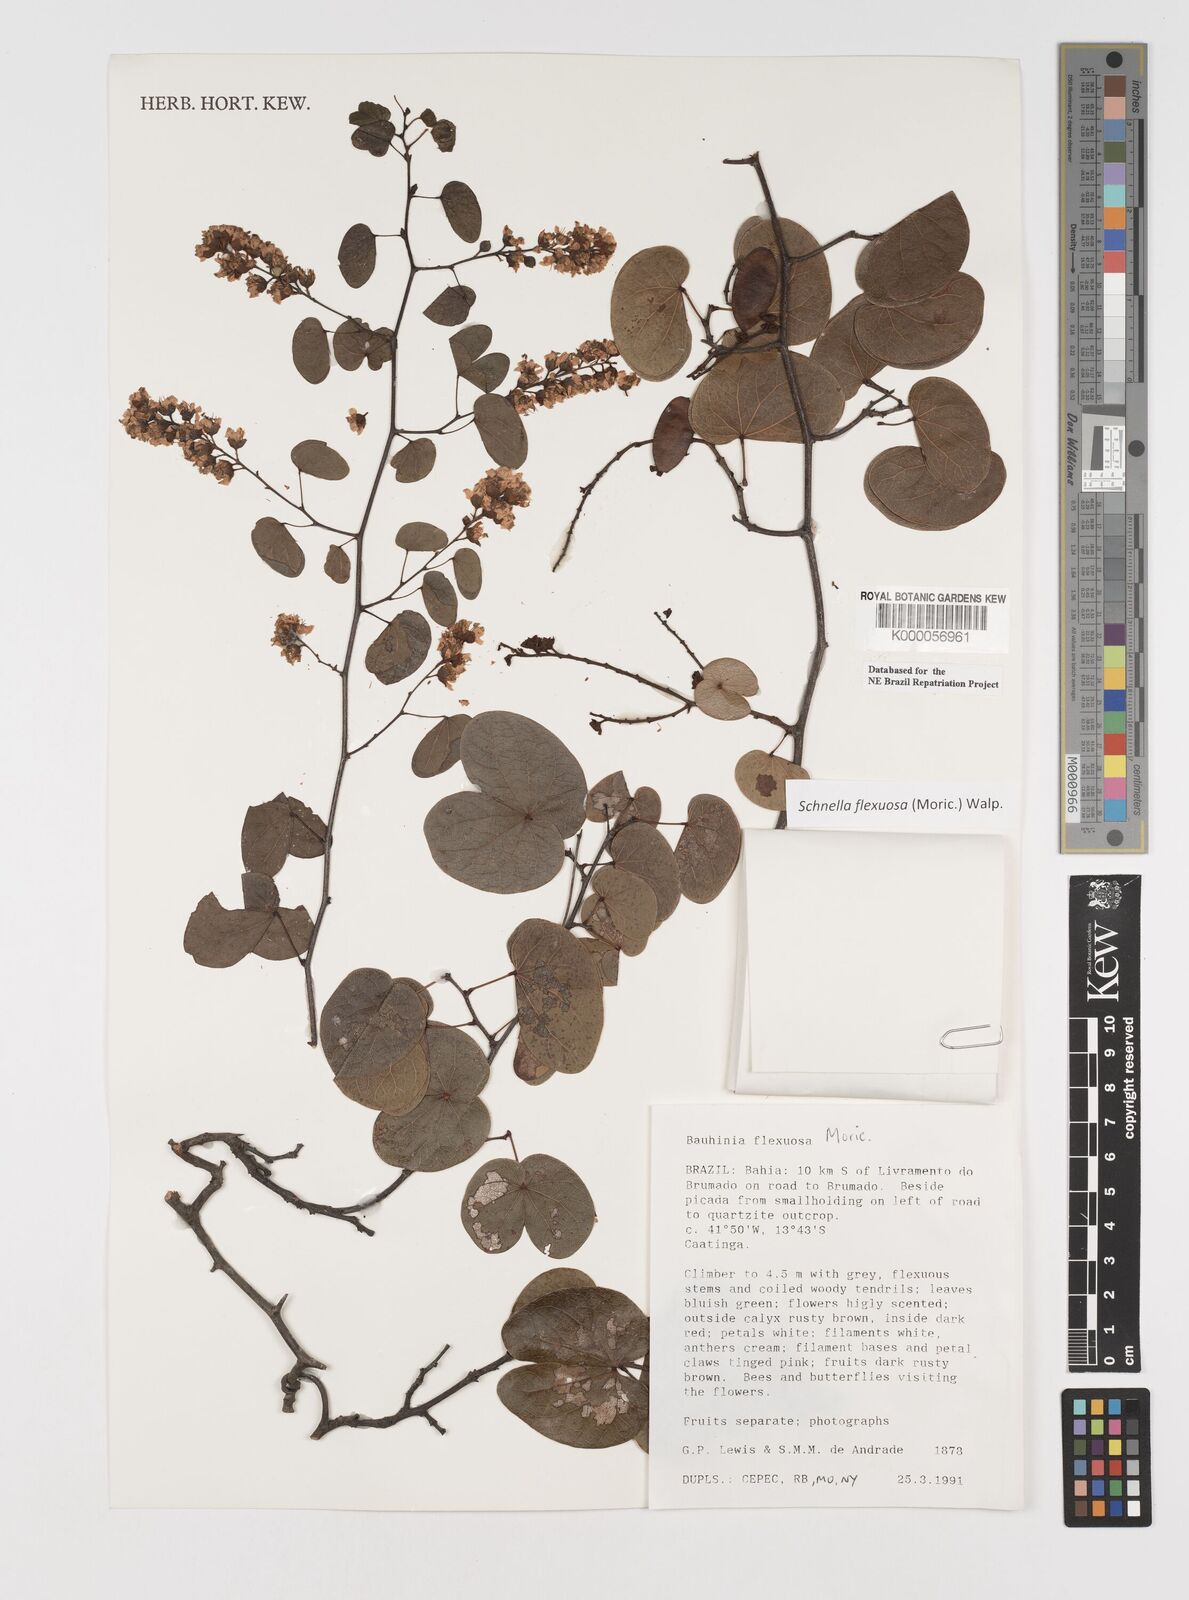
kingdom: Plantae
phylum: Tracheophyta
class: Magnoliopsida
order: Fabales
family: Fabaceae
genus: Schnella
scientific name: Schnella flexuosa
